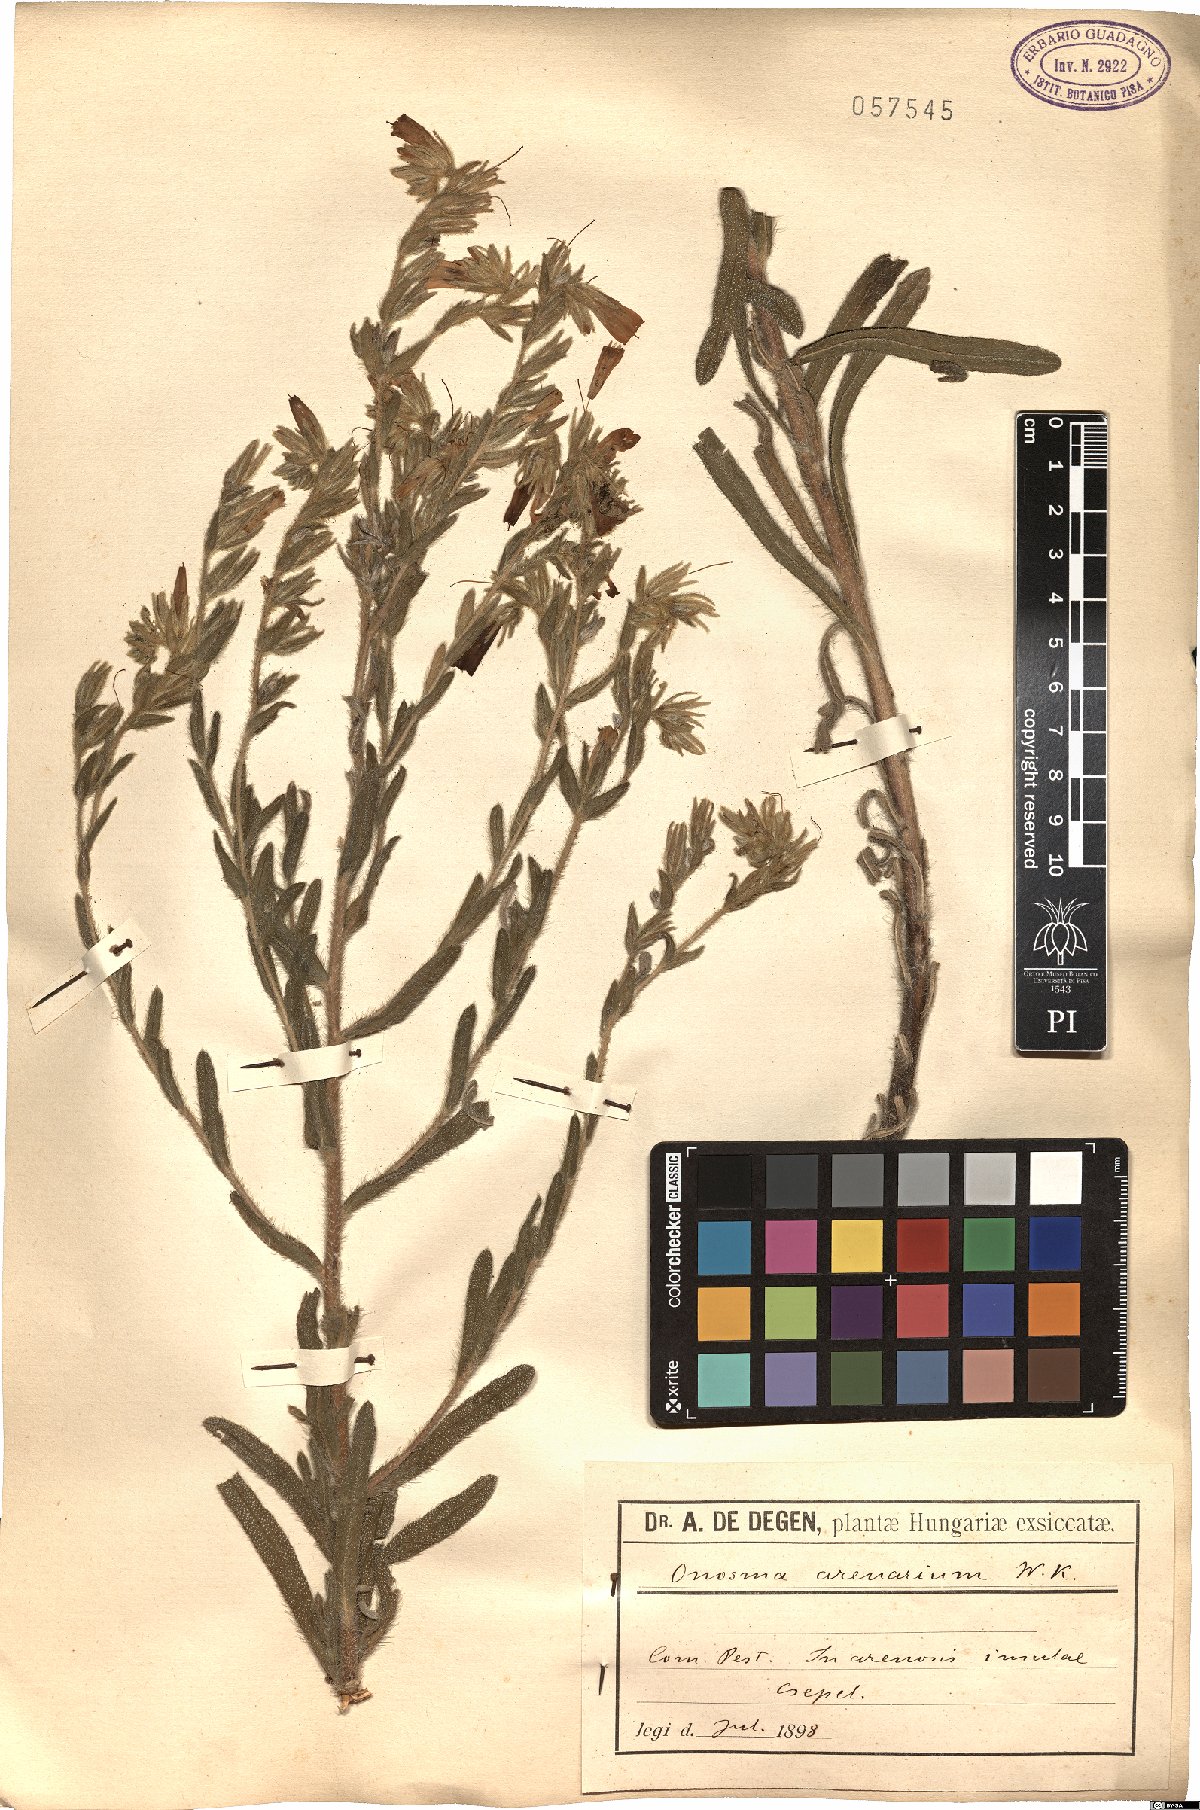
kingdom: Plantae
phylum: Tracheophyta
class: Magnoliopsida
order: Boraginales
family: Boraginaceae
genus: Onosma
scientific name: Onosma arenaria
